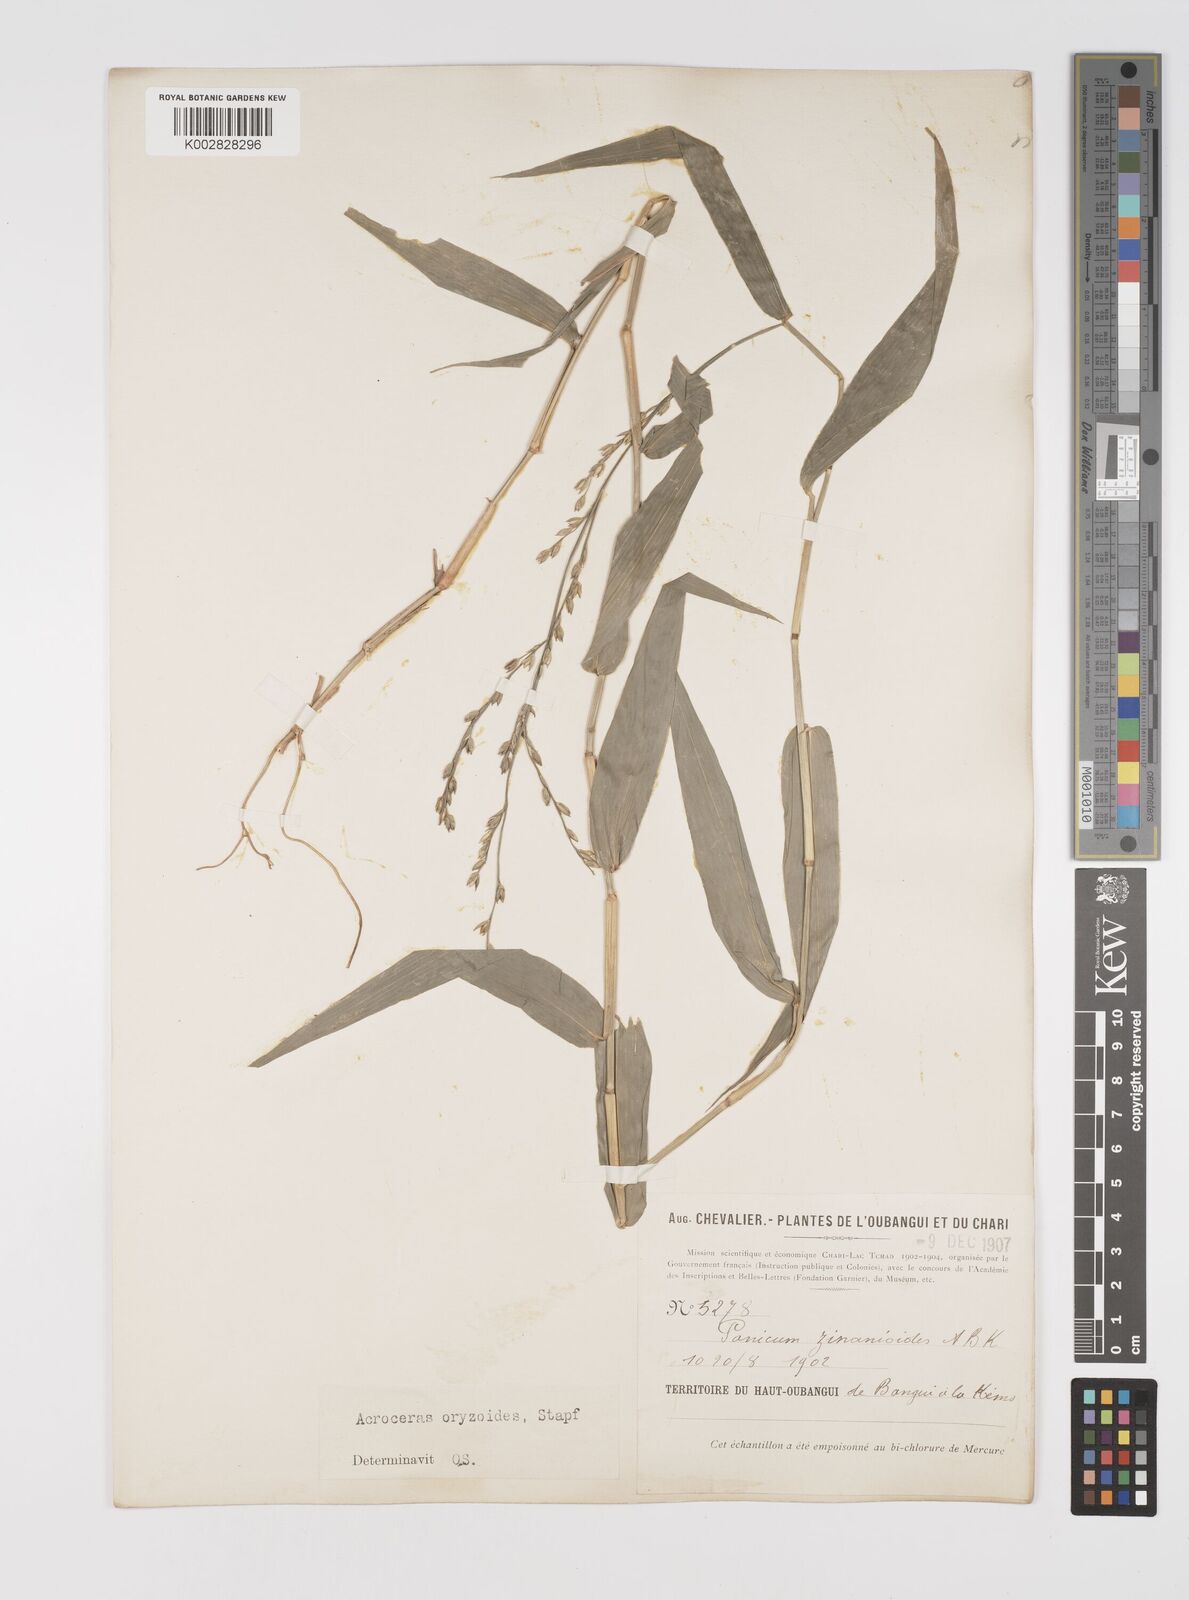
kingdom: Plantae
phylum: Tracheophyta
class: Liliopsida
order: Poales
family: Poaceae
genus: Acroceras
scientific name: Acroceras zizanioides
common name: Oat grass
